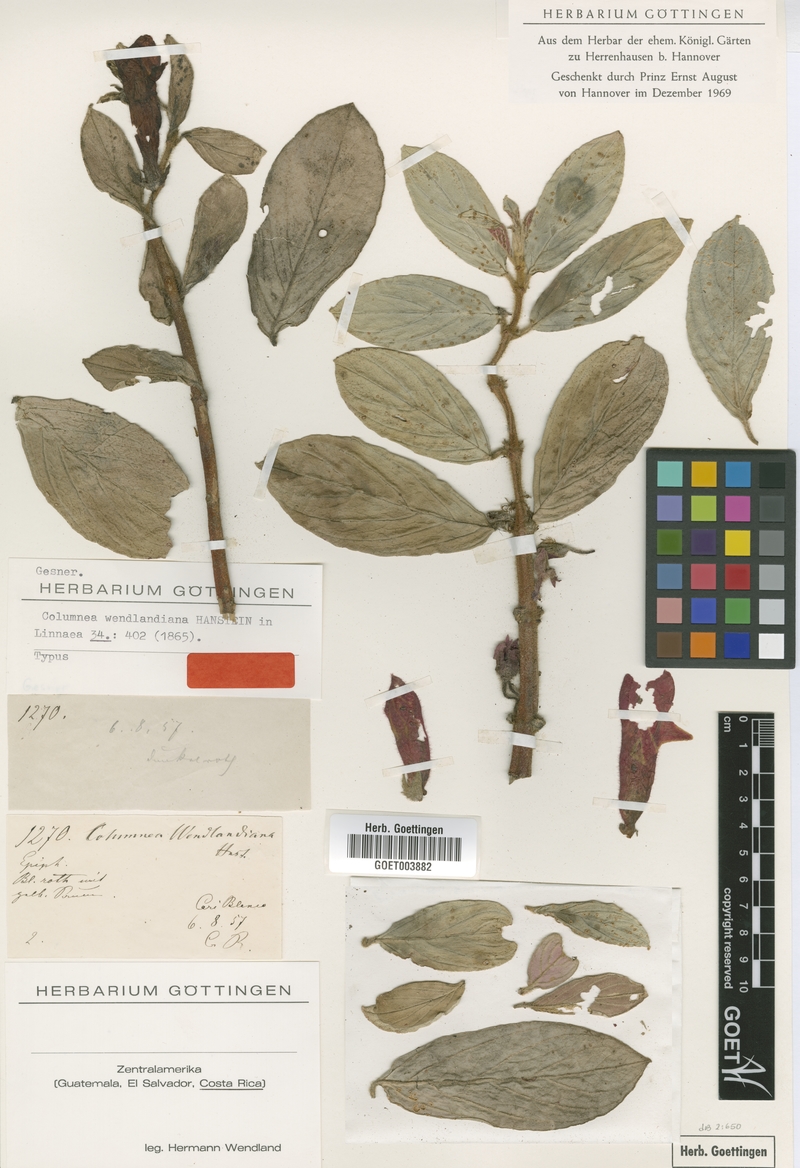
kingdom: Plantae
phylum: Tracheophyta
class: Magnoliopsida
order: Lamiales
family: Gesneriaceae
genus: Columnea
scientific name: Columnea magnifica
